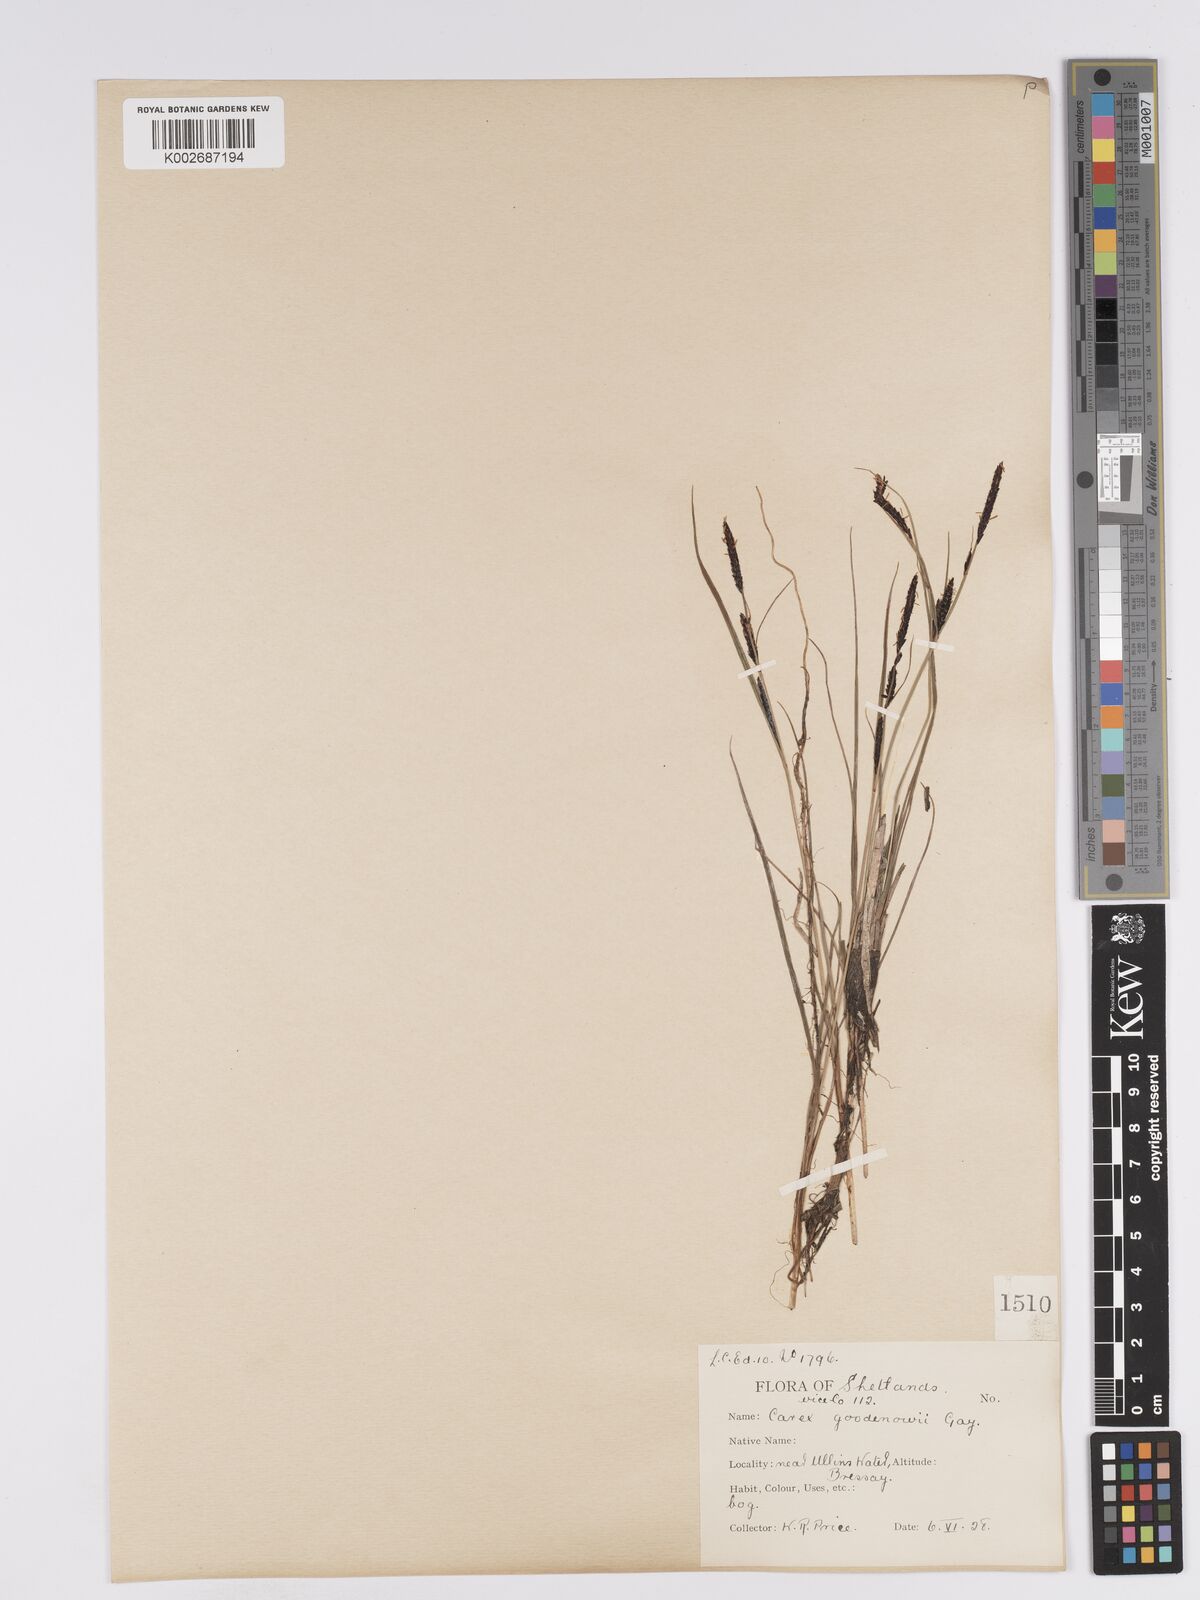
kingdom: Plantae
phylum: Tracheophyta
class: Liliopsida
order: Poales
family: Cyperaceae
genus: Carex
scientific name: Carex nigra
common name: Common sedge
